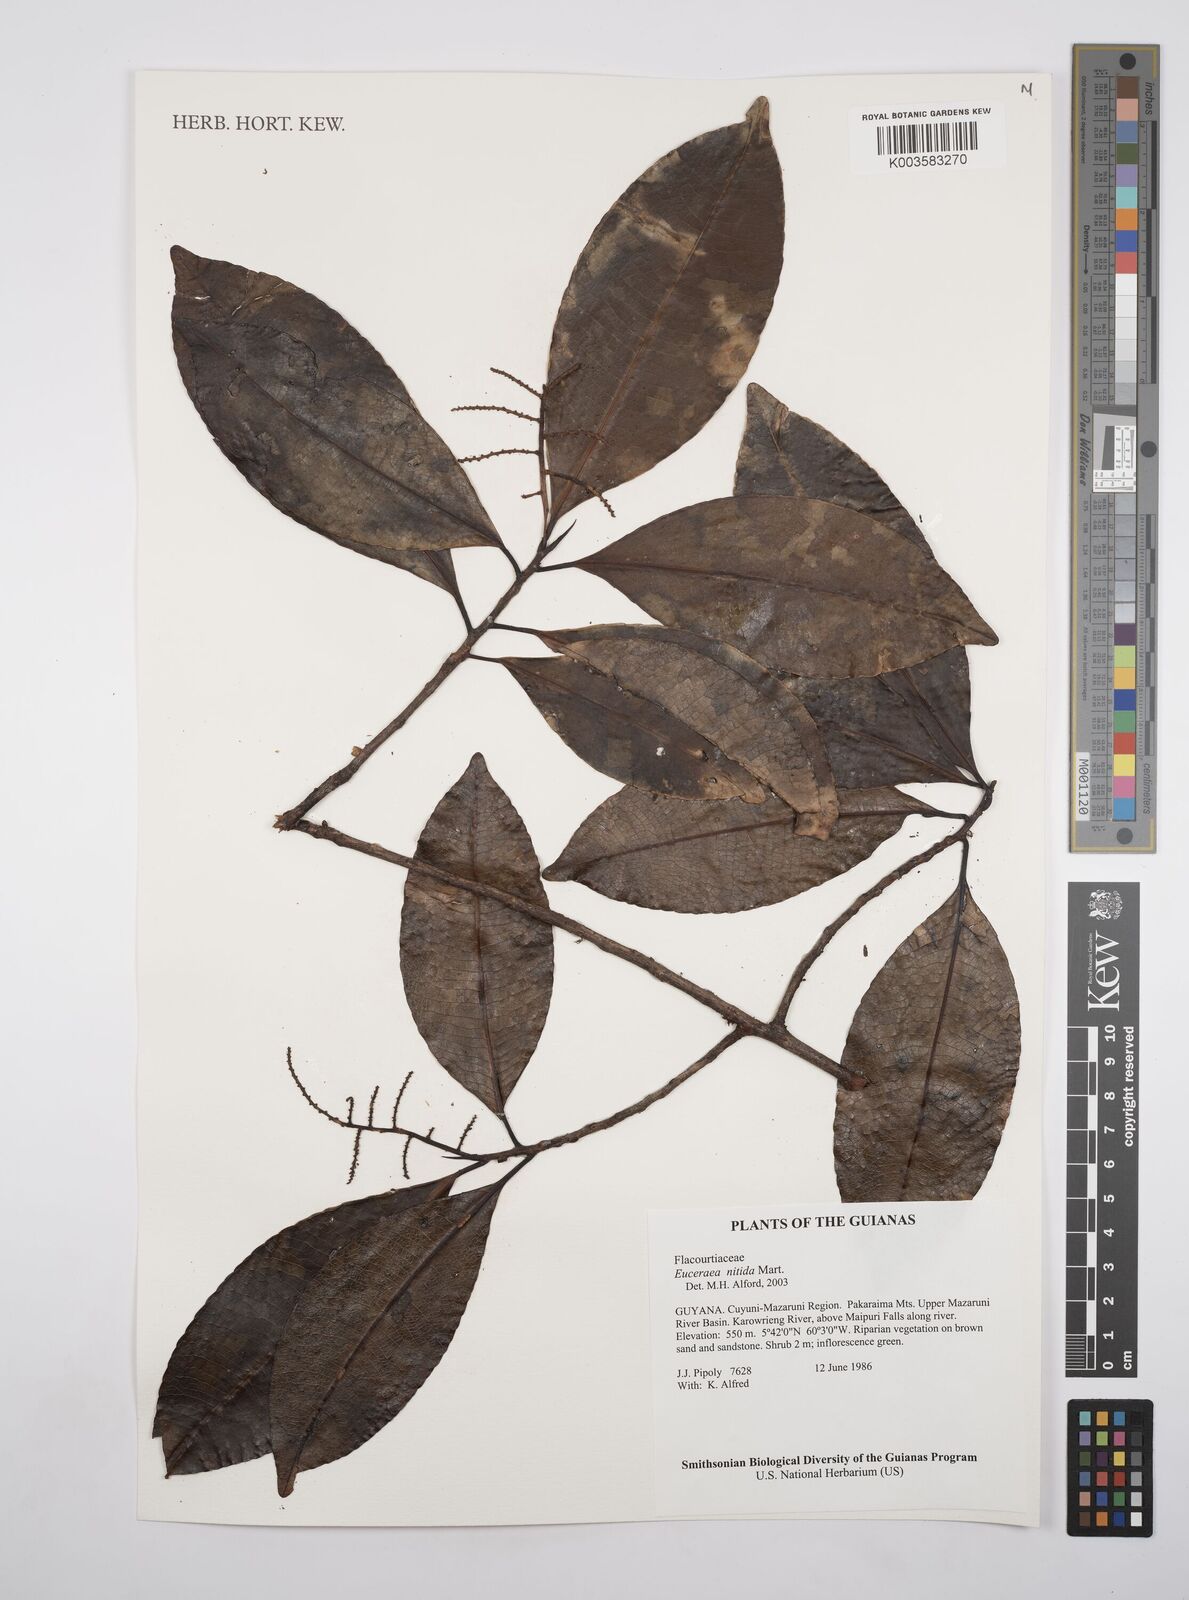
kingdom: Plantae
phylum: Tracheophyta
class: Magnoliopsida
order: Malpighiales
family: Salicaceae
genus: Casearia
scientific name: Casearia euceraea
